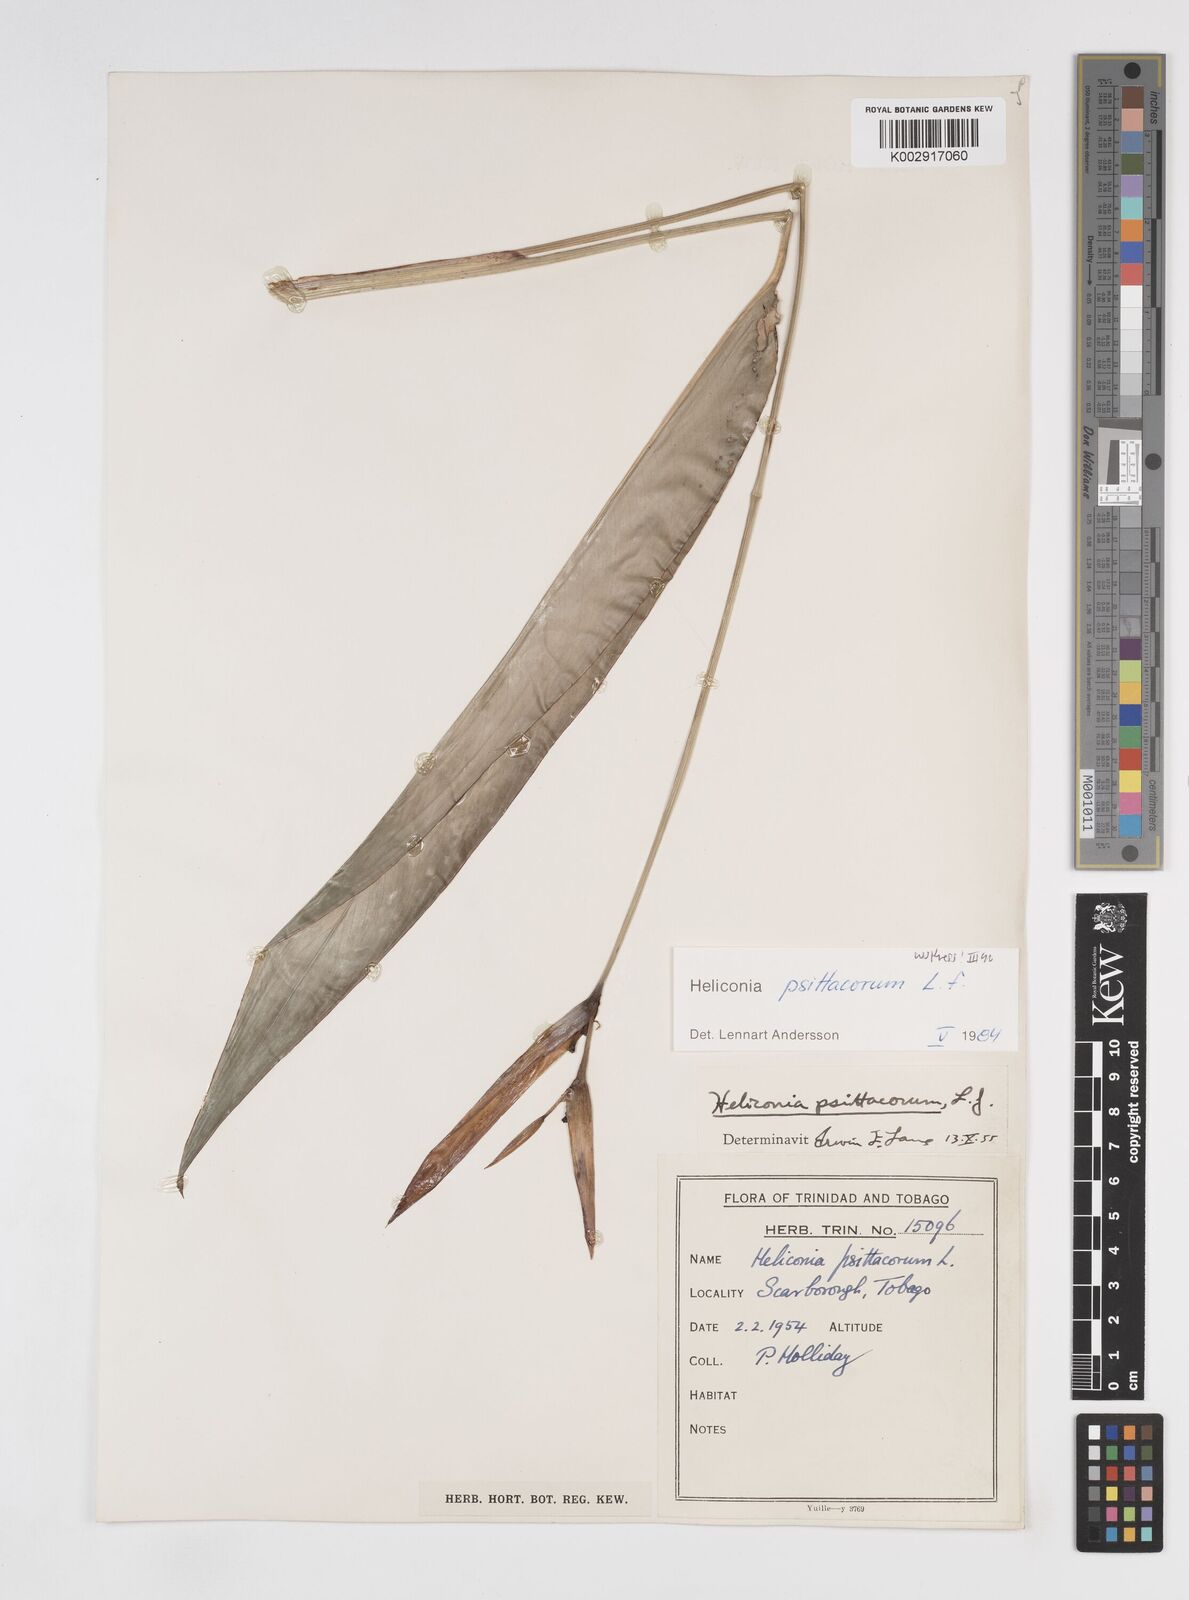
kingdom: Plantae
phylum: Tracheophyta
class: Liliopsida
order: Zingiberales
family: Heliconiaceae
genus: Heliconia
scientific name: Heliconia psittacorum
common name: Parrot's-flower
